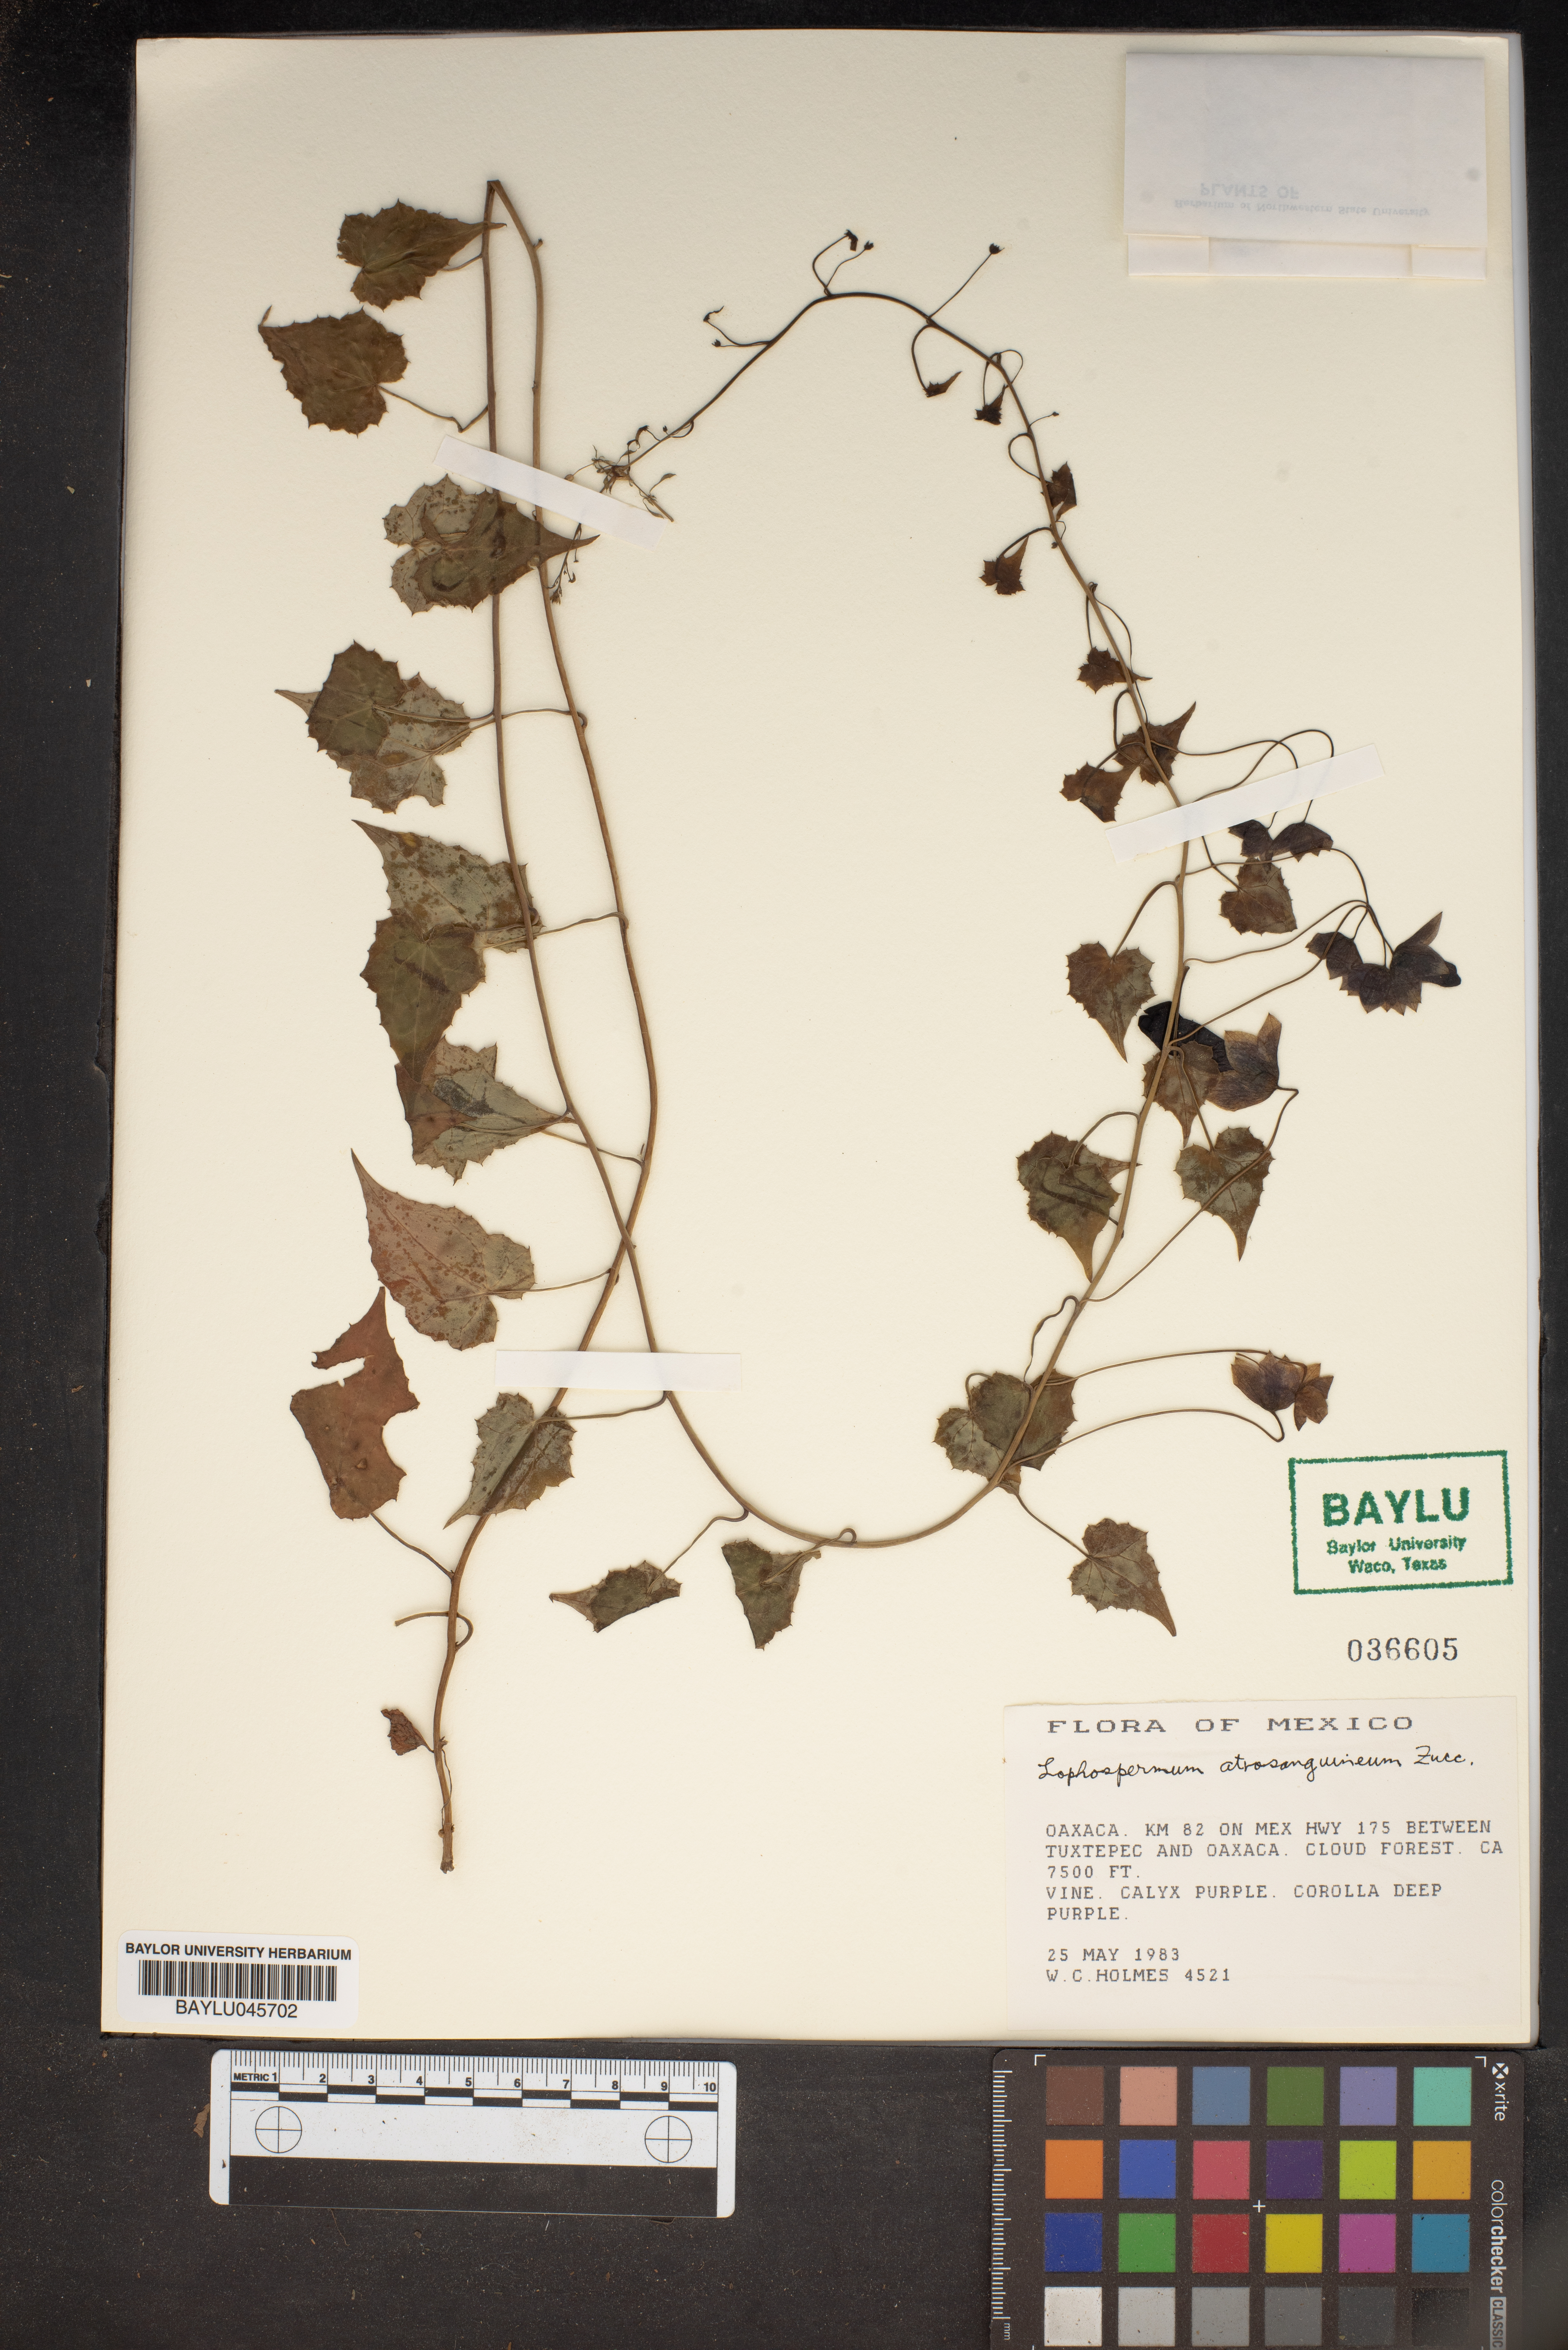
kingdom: Plantae
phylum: Tracheophyta
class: Magnoliopsida
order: Lamiales
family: Plantaginaceae
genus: Rhodochiton
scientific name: Rhodochiton atrosanguineus
